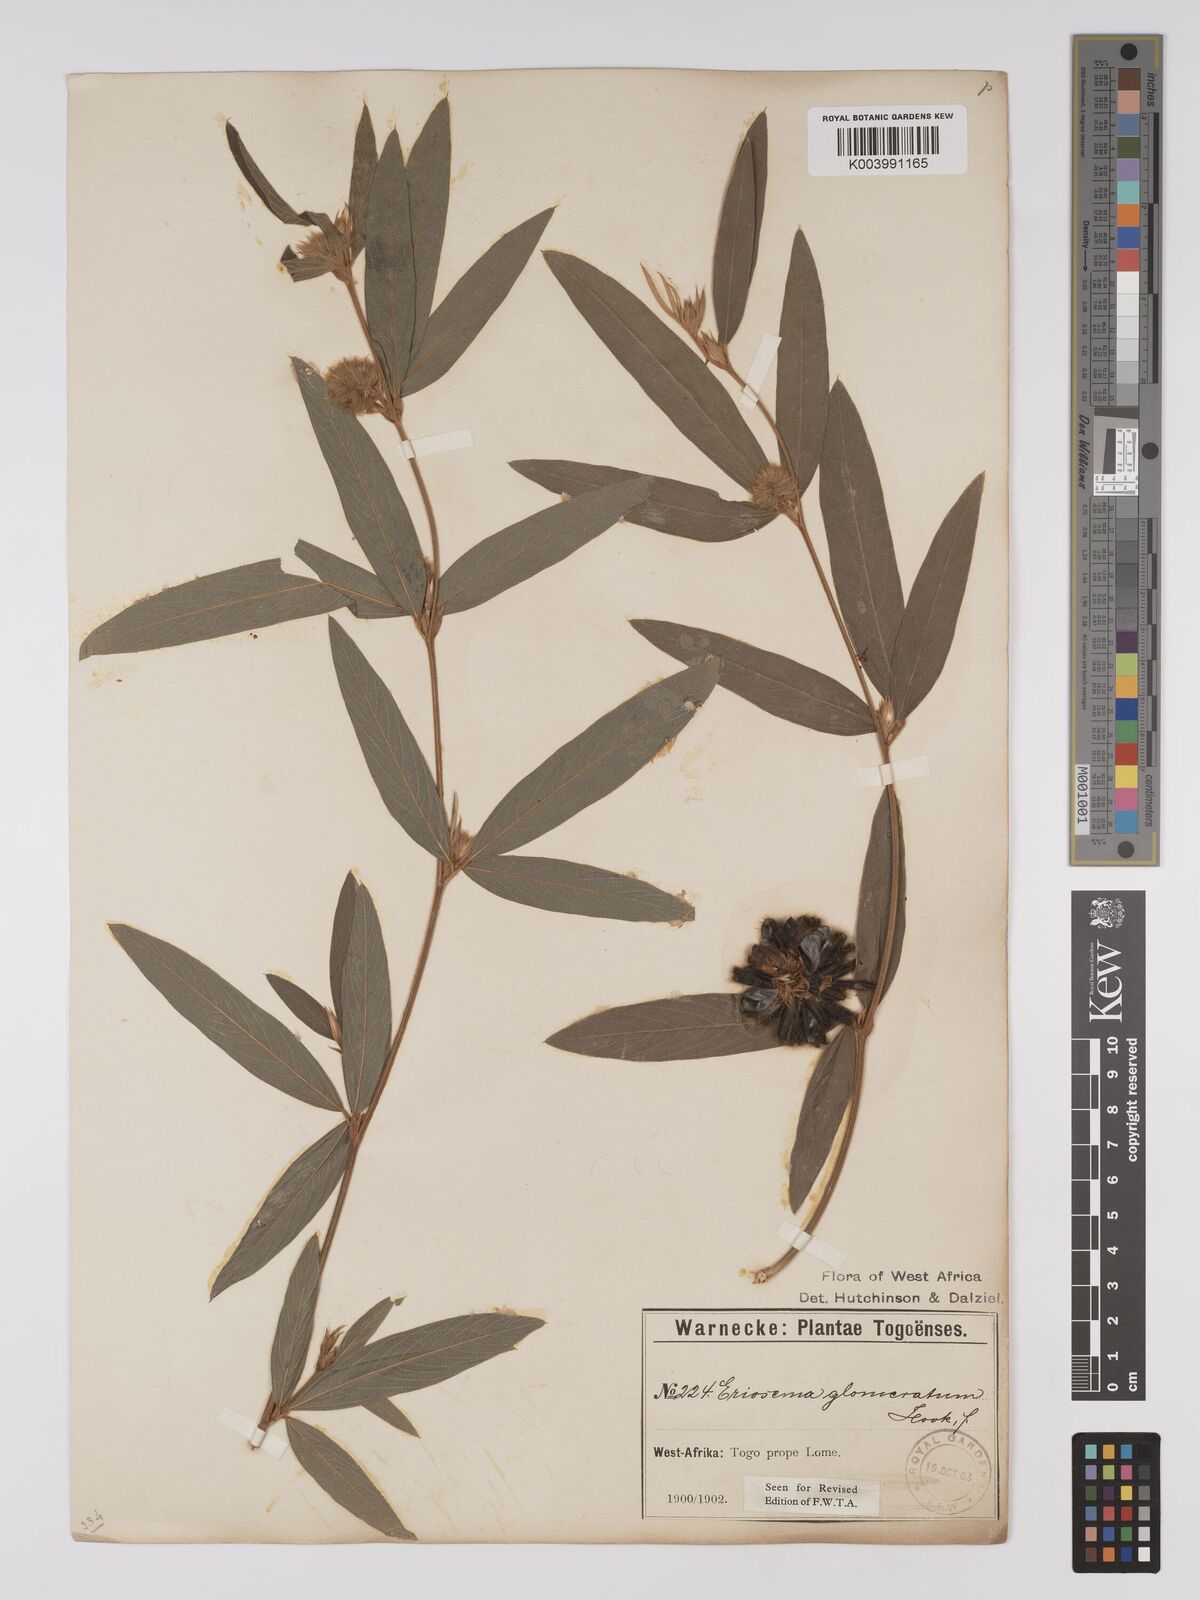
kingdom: Plantae
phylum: Tracheophyta
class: Magnoliopsida
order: Fabales
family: Fabaceae
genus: Eriosema
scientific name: Eriosema glomeratum
